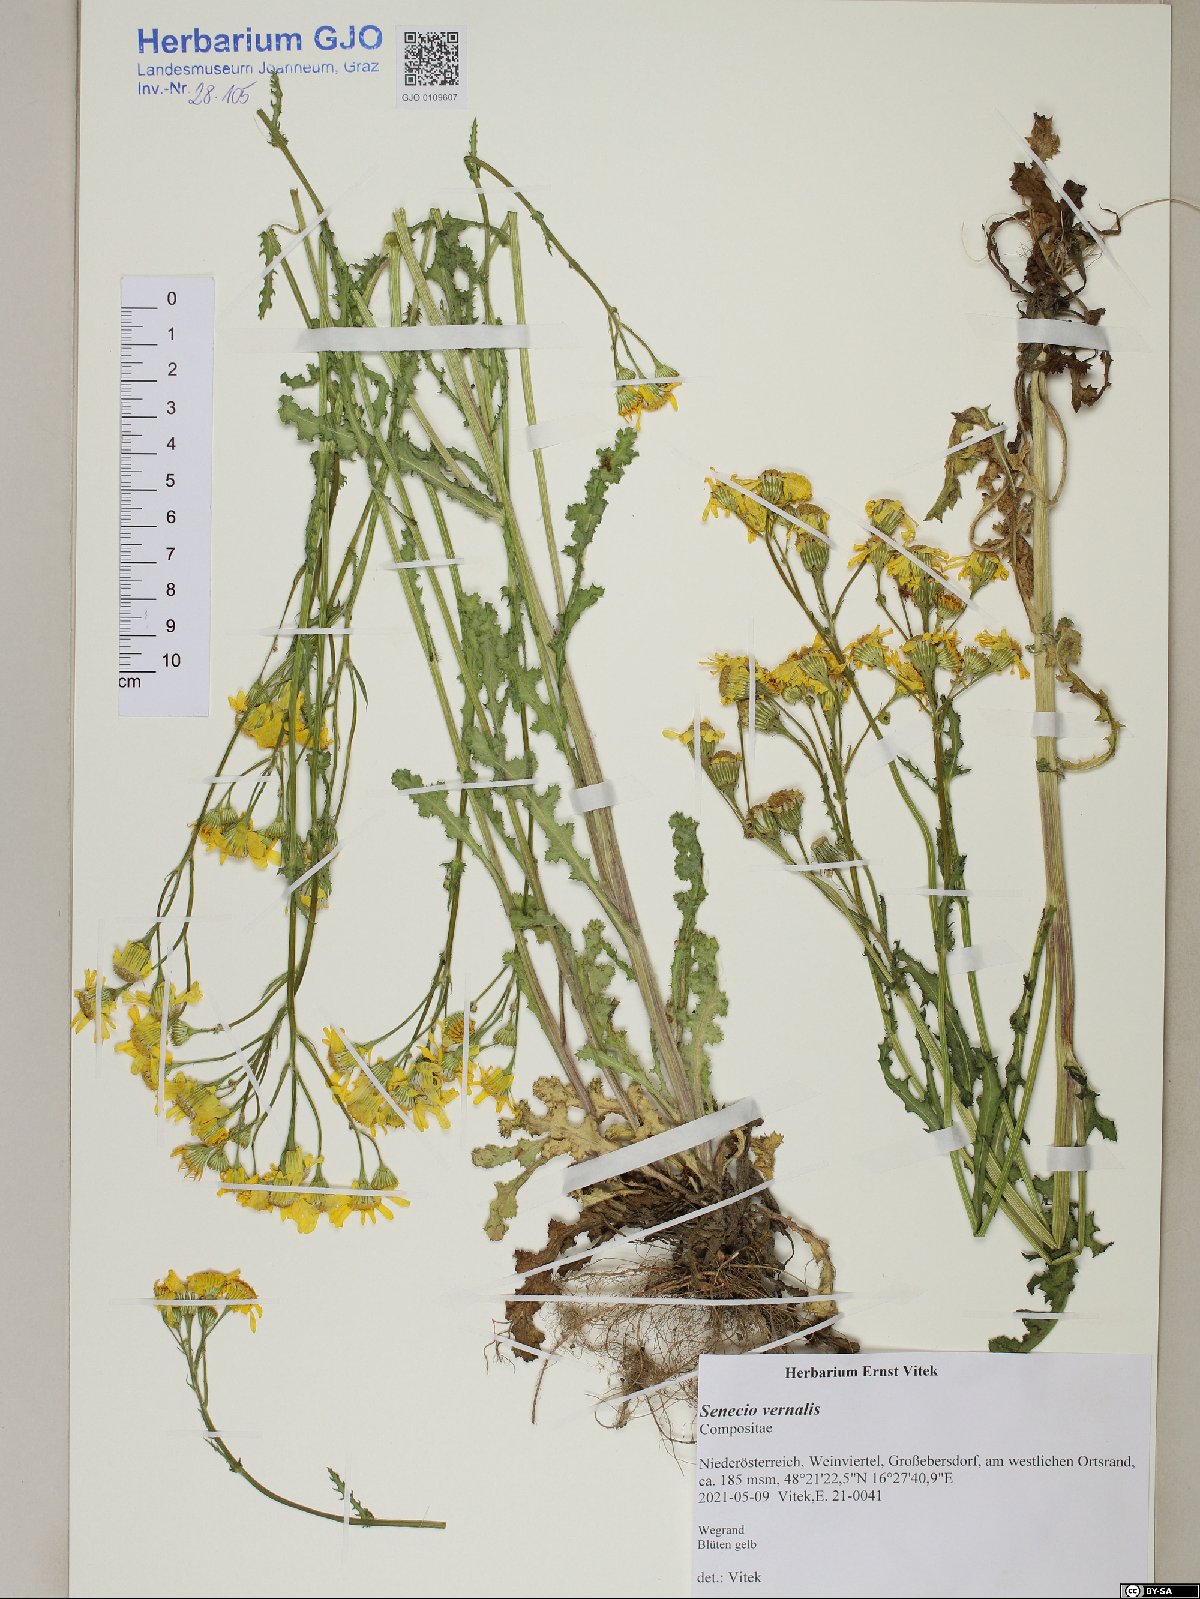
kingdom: Plantae
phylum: Tracheophyta
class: Magnoliopsida
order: Asterales
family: Asteraceae
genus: Senecio
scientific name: Senecio vernalis
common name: Eastern groundsel
